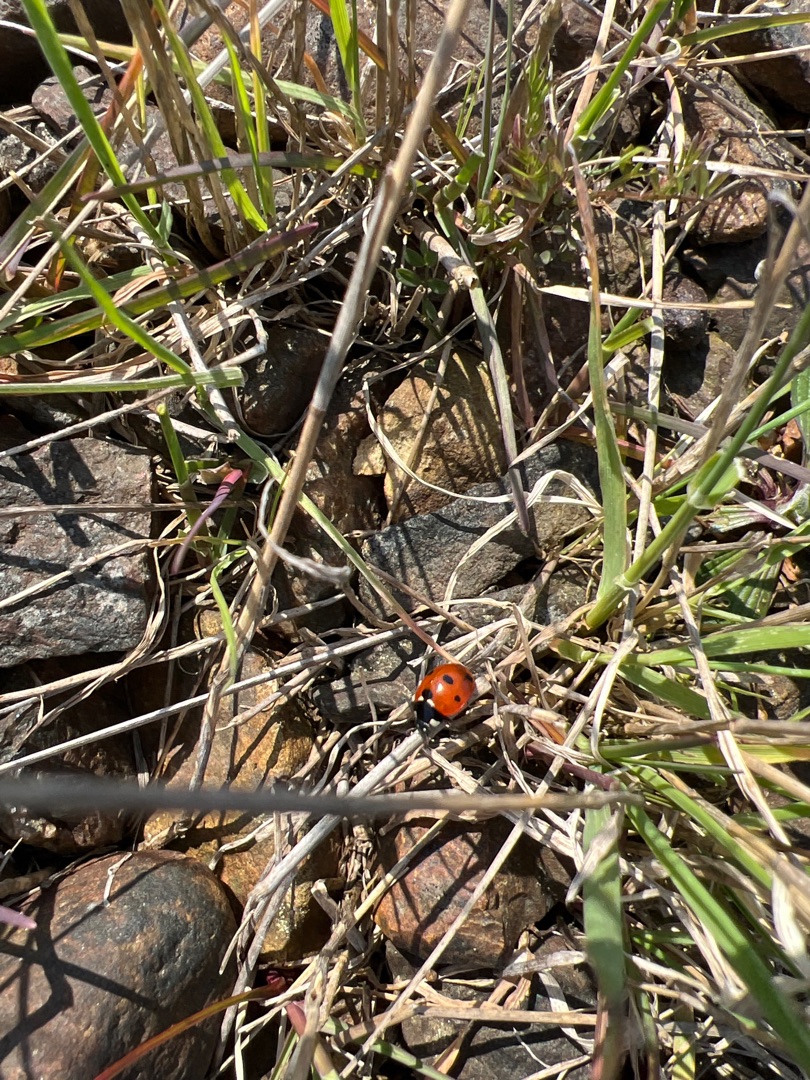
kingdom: Animalia
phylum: Arthropoda
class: Insecta
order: Coleoptera
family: Coccinellidae
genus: Coccinella
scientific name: Coccinella septempunctata
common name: Syvplettet mariehøne
